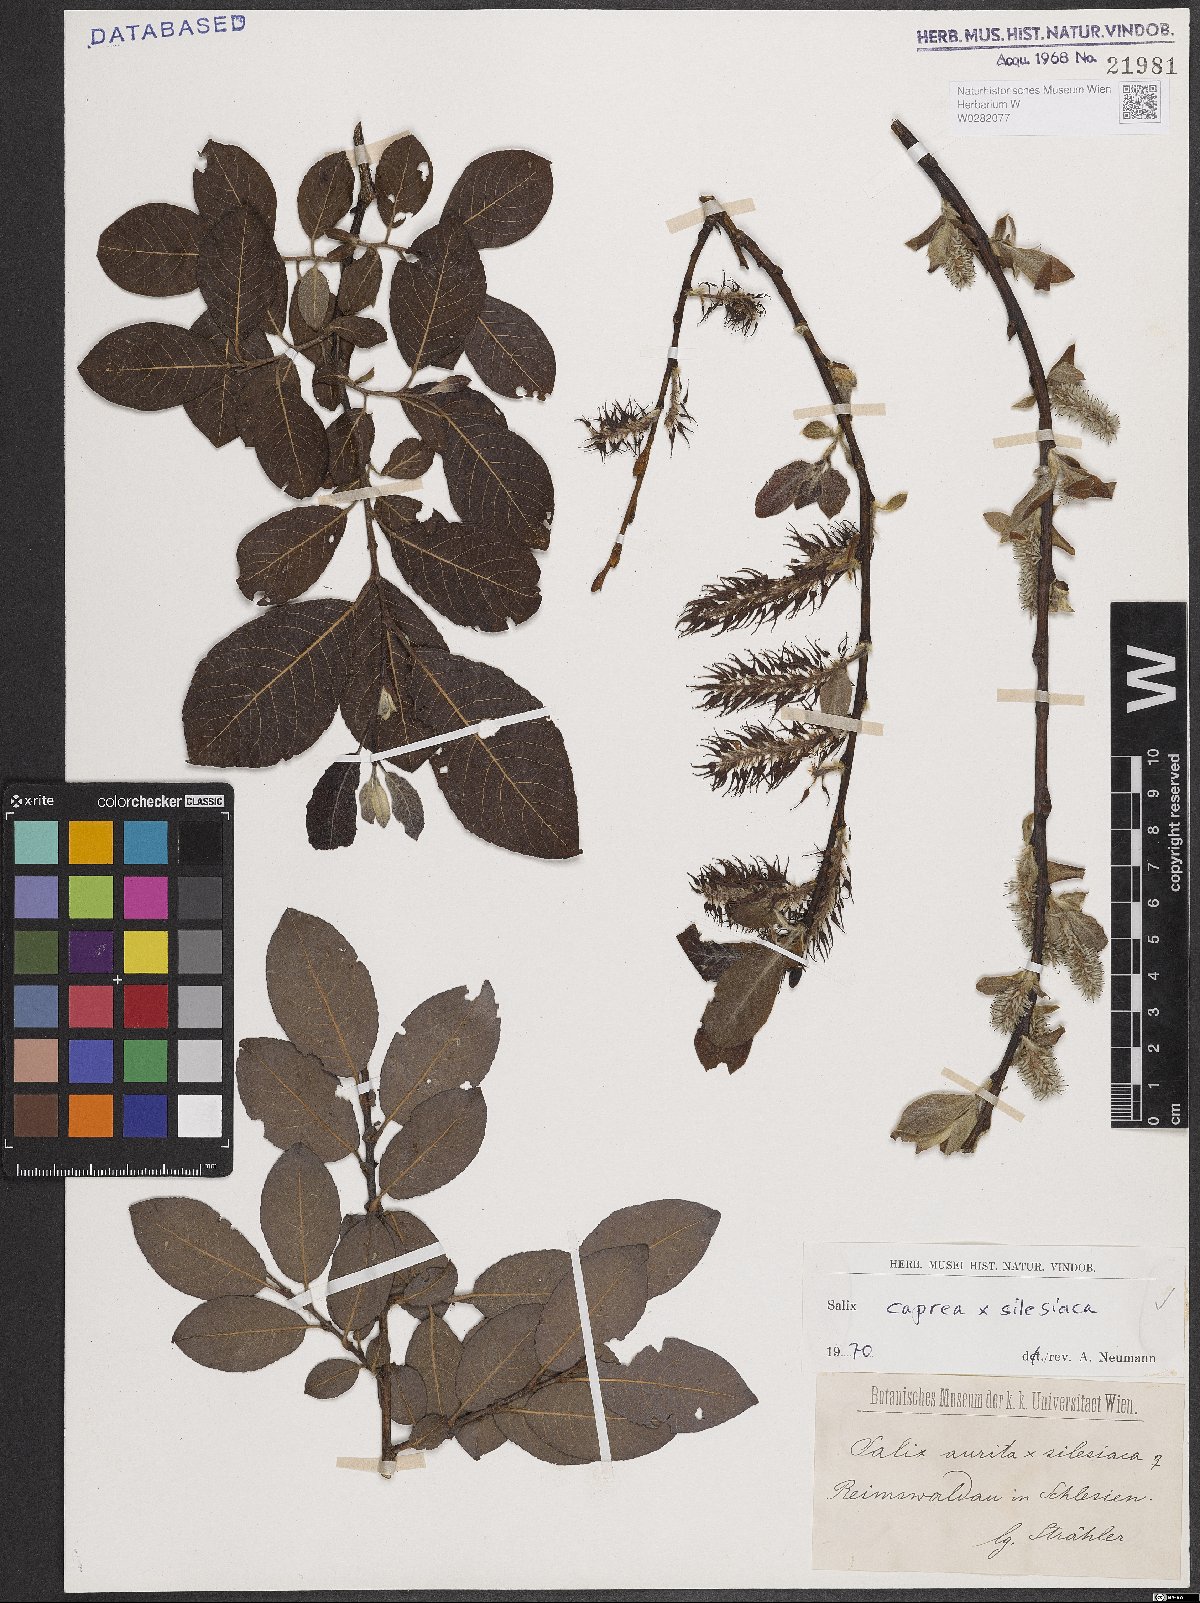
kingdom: Plantae
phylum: Tracheophyta
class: Magnoliopsida
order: Malpighiales
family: Salicaceae
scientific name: Salicaceae
